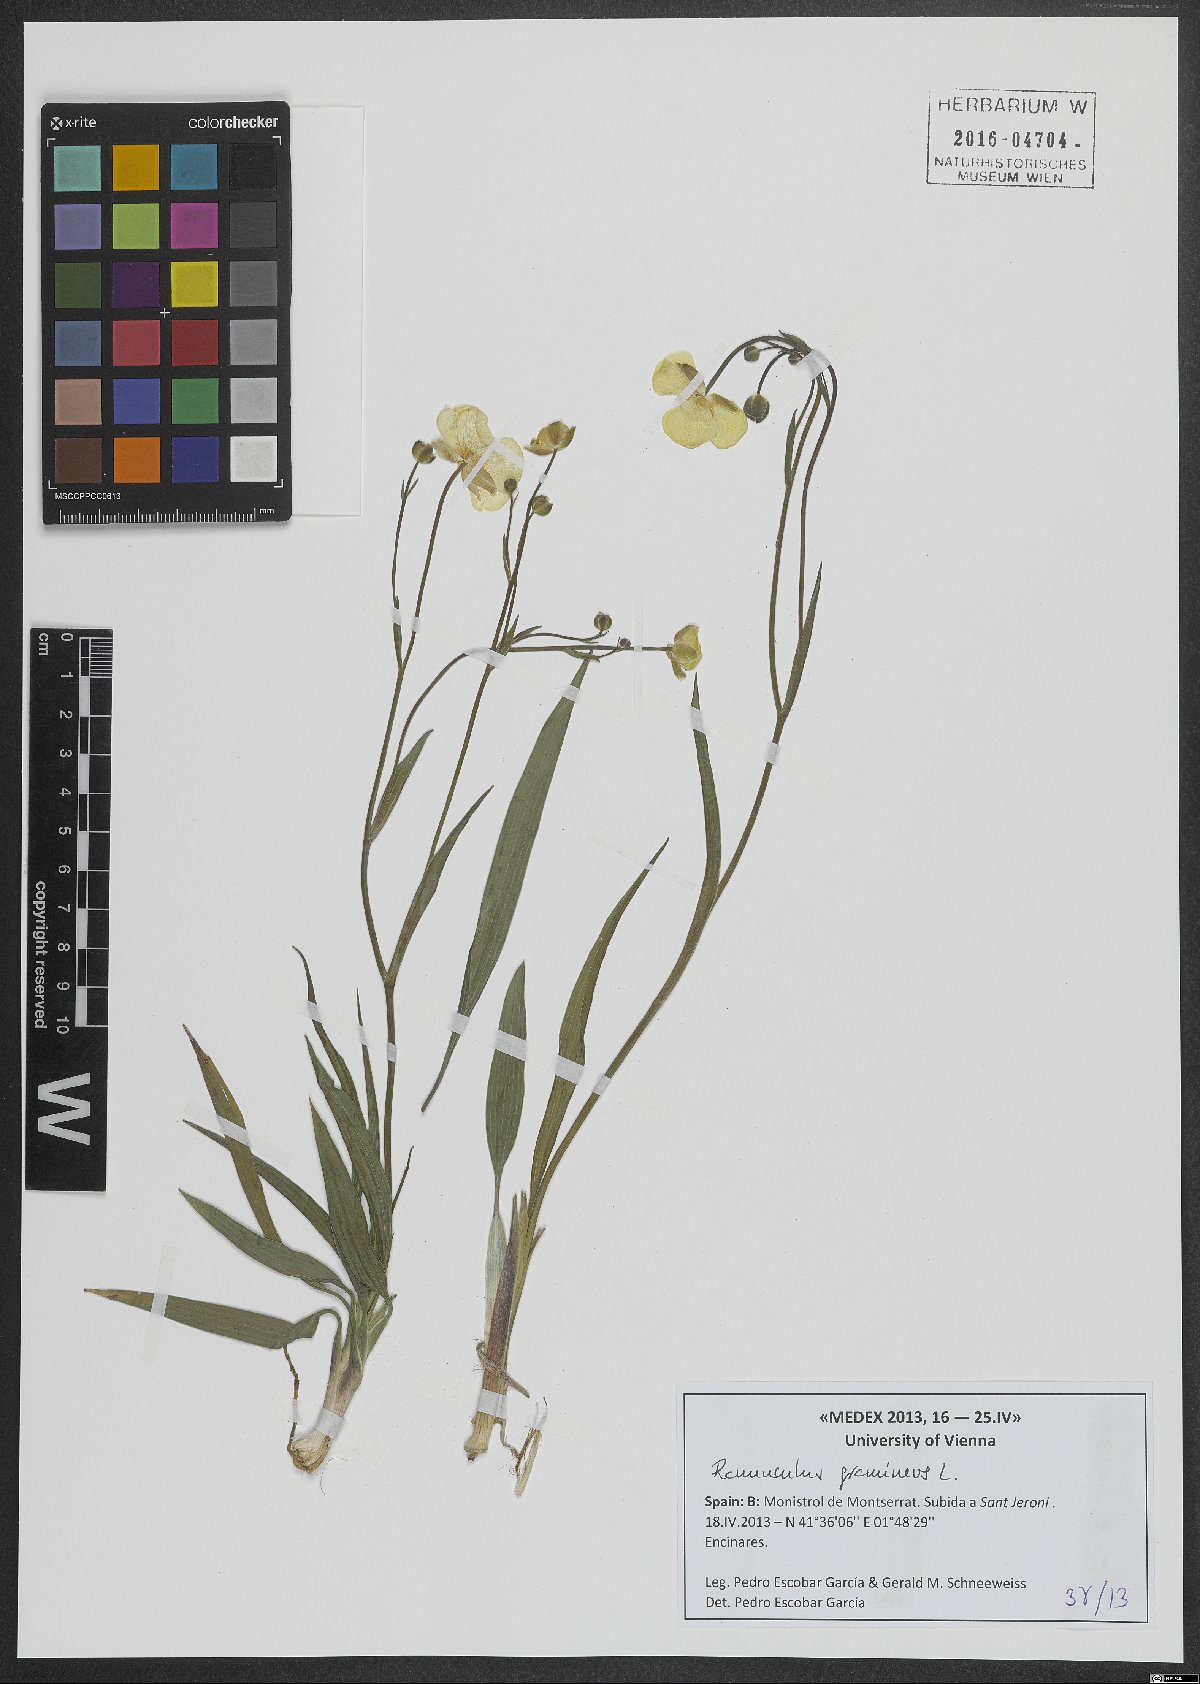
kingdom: Plantae
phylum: Tracheophyta
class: Magnoliopsida
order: Ranunculales
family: Ranunculaceae
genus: Ranunculus
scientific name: Ranunculus gramineus
